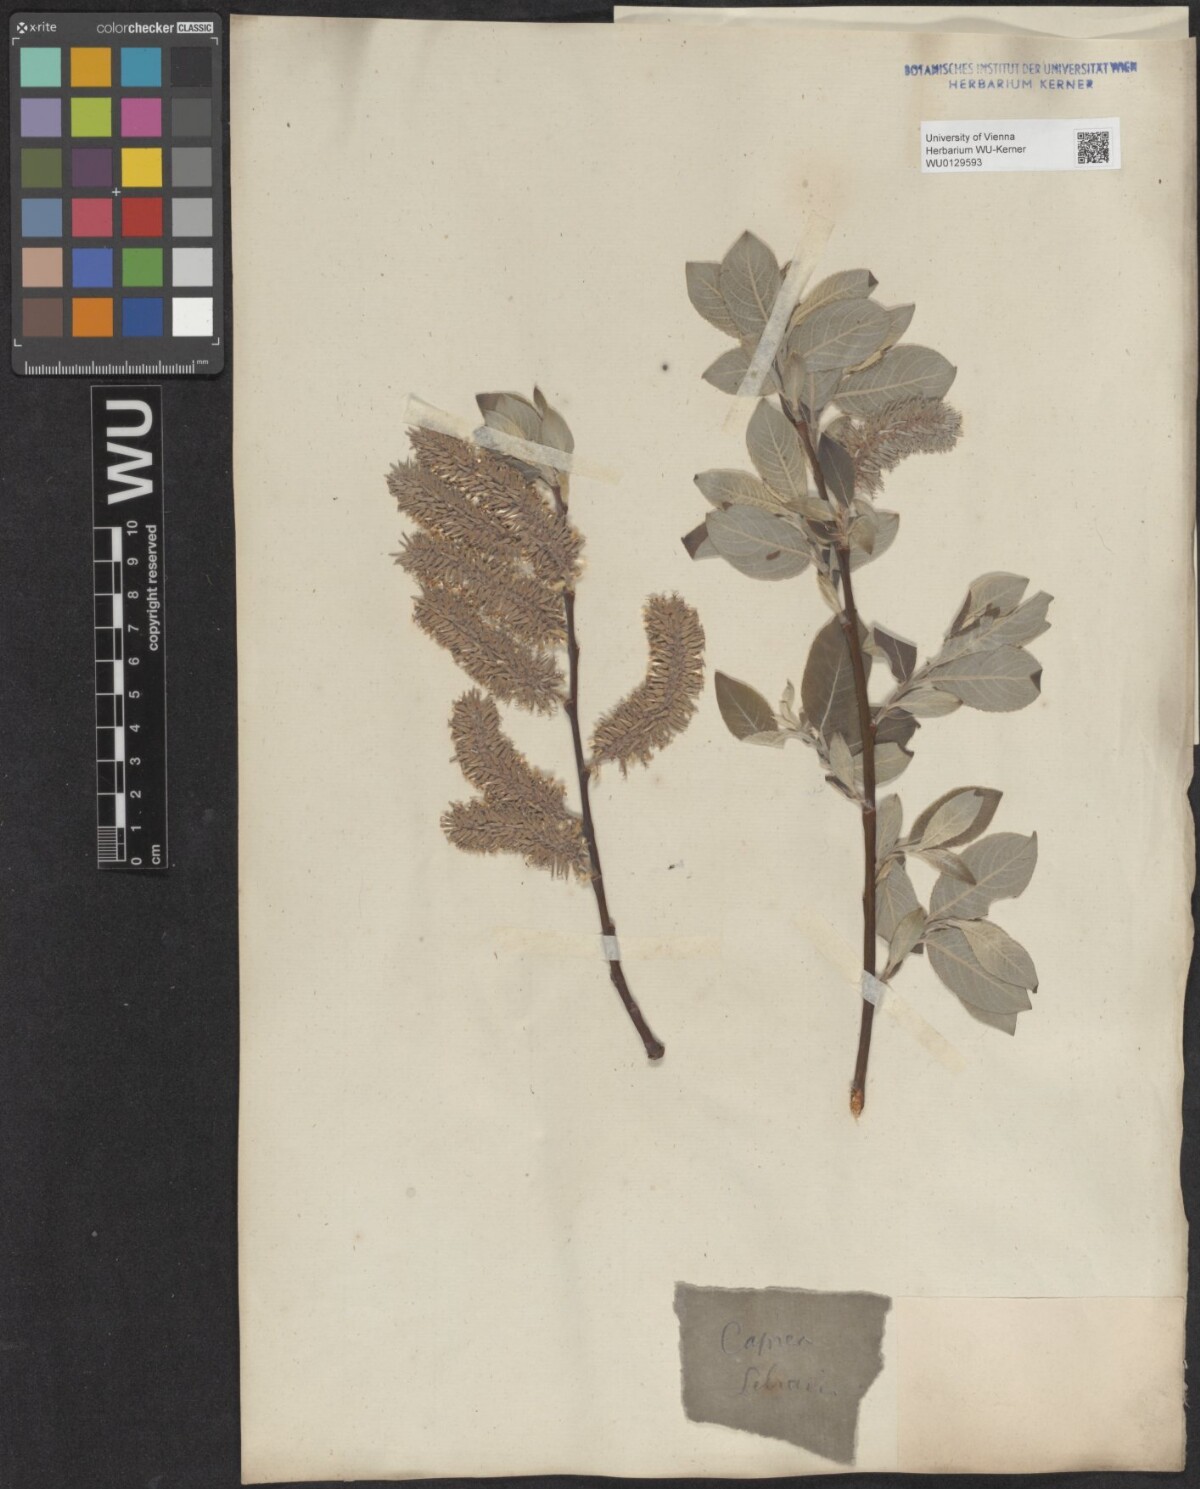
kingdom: Plantae
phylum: Tracheophyta
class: Magnoliopsida
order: Malpighiales
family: Salicaceae
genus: Salix
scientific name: Salix caprea
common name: Goat willow
